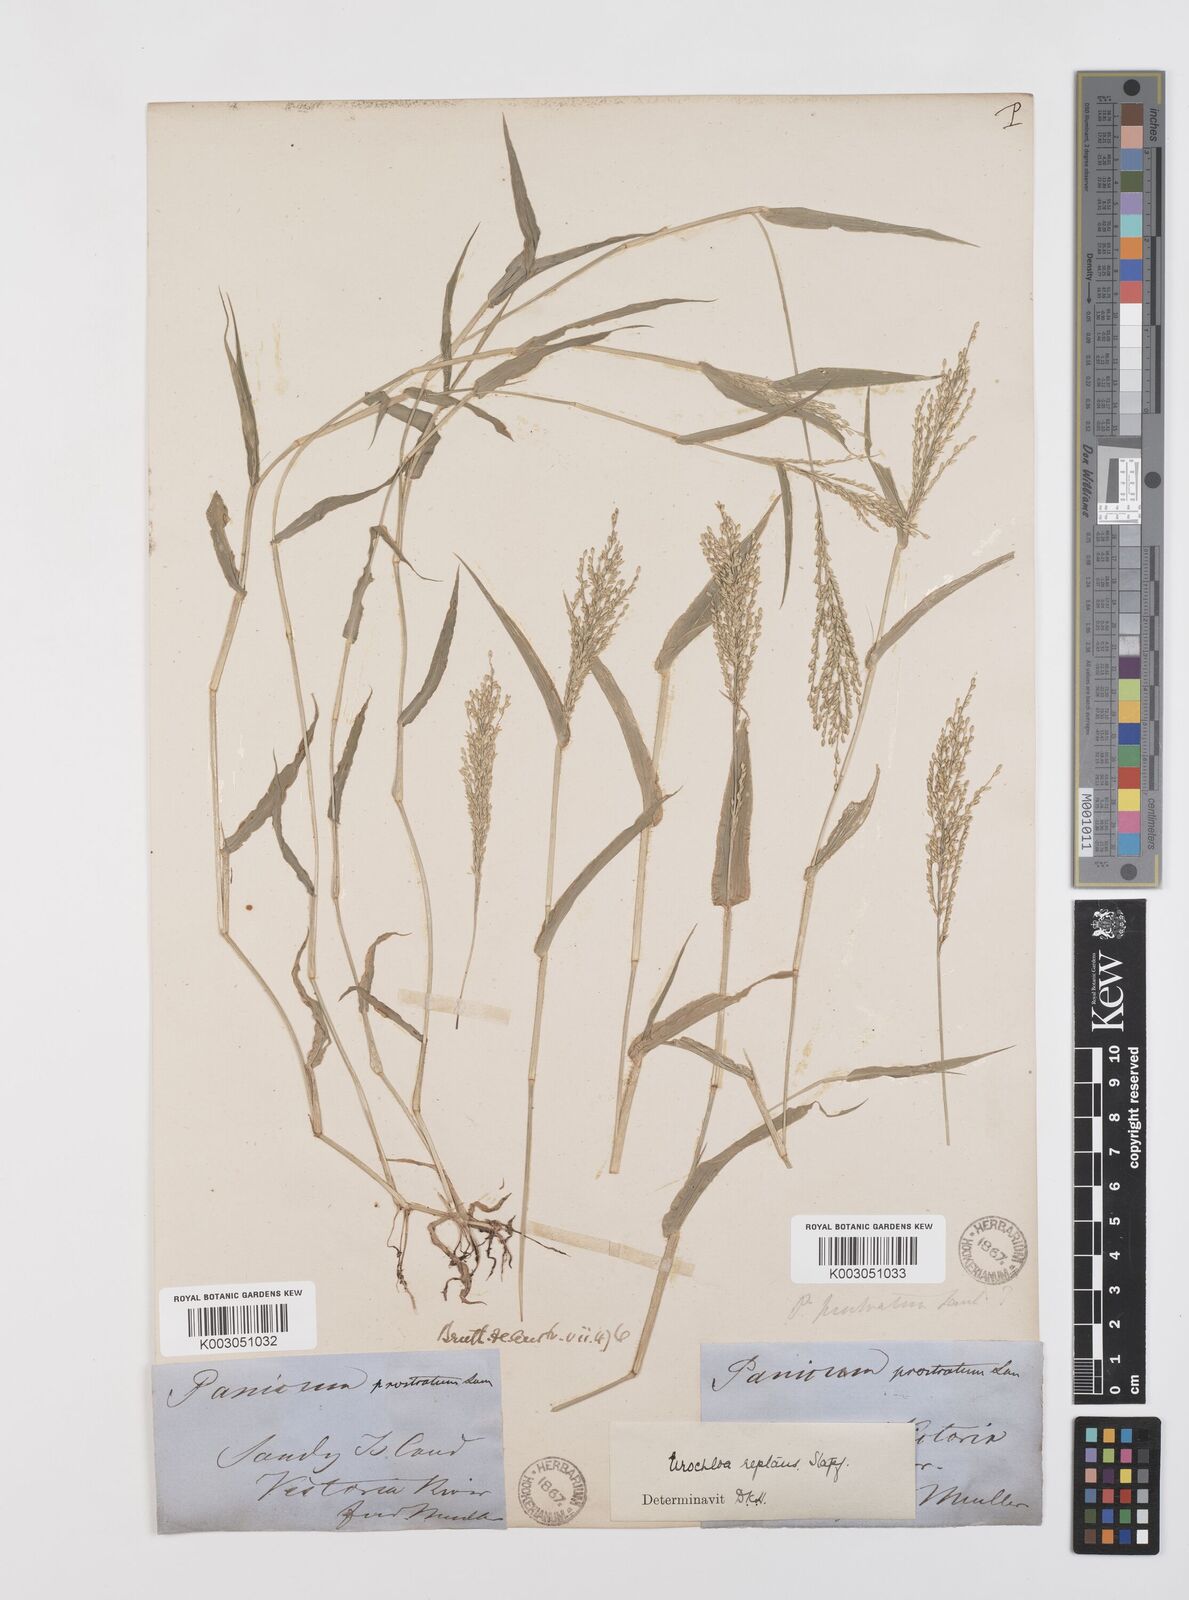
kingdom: Plantae
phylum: Tracheophyta
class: Liliopsida
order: Poales
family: Poaceae
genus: Urochloa
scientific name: Urochloa reptans
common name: Sprawling signalgrass
